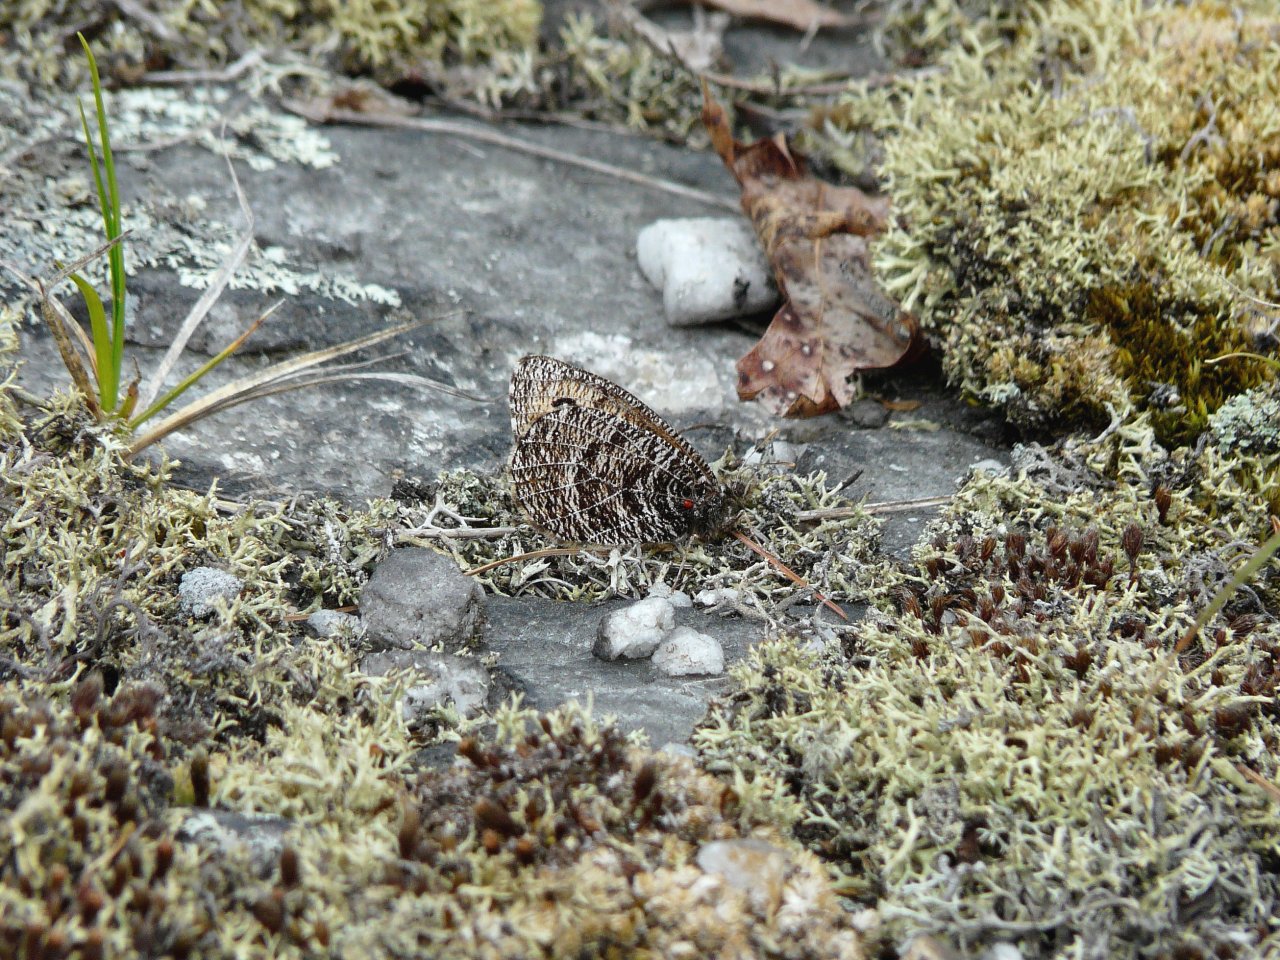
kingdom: Animalia
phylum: Arthropoda
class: Insecta
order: Lepidoptera
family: Nymphalidae
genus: Oeneis
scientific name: Oeneis chryxus
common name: Chryxus Arctic
